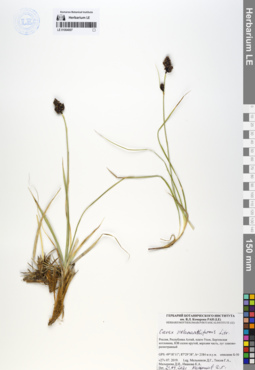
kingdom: Plantae
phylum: Tracheophyta
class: Liliopsida
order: Poales
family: Cyperaceae
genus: Carex
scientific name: Carex melananthiformis
